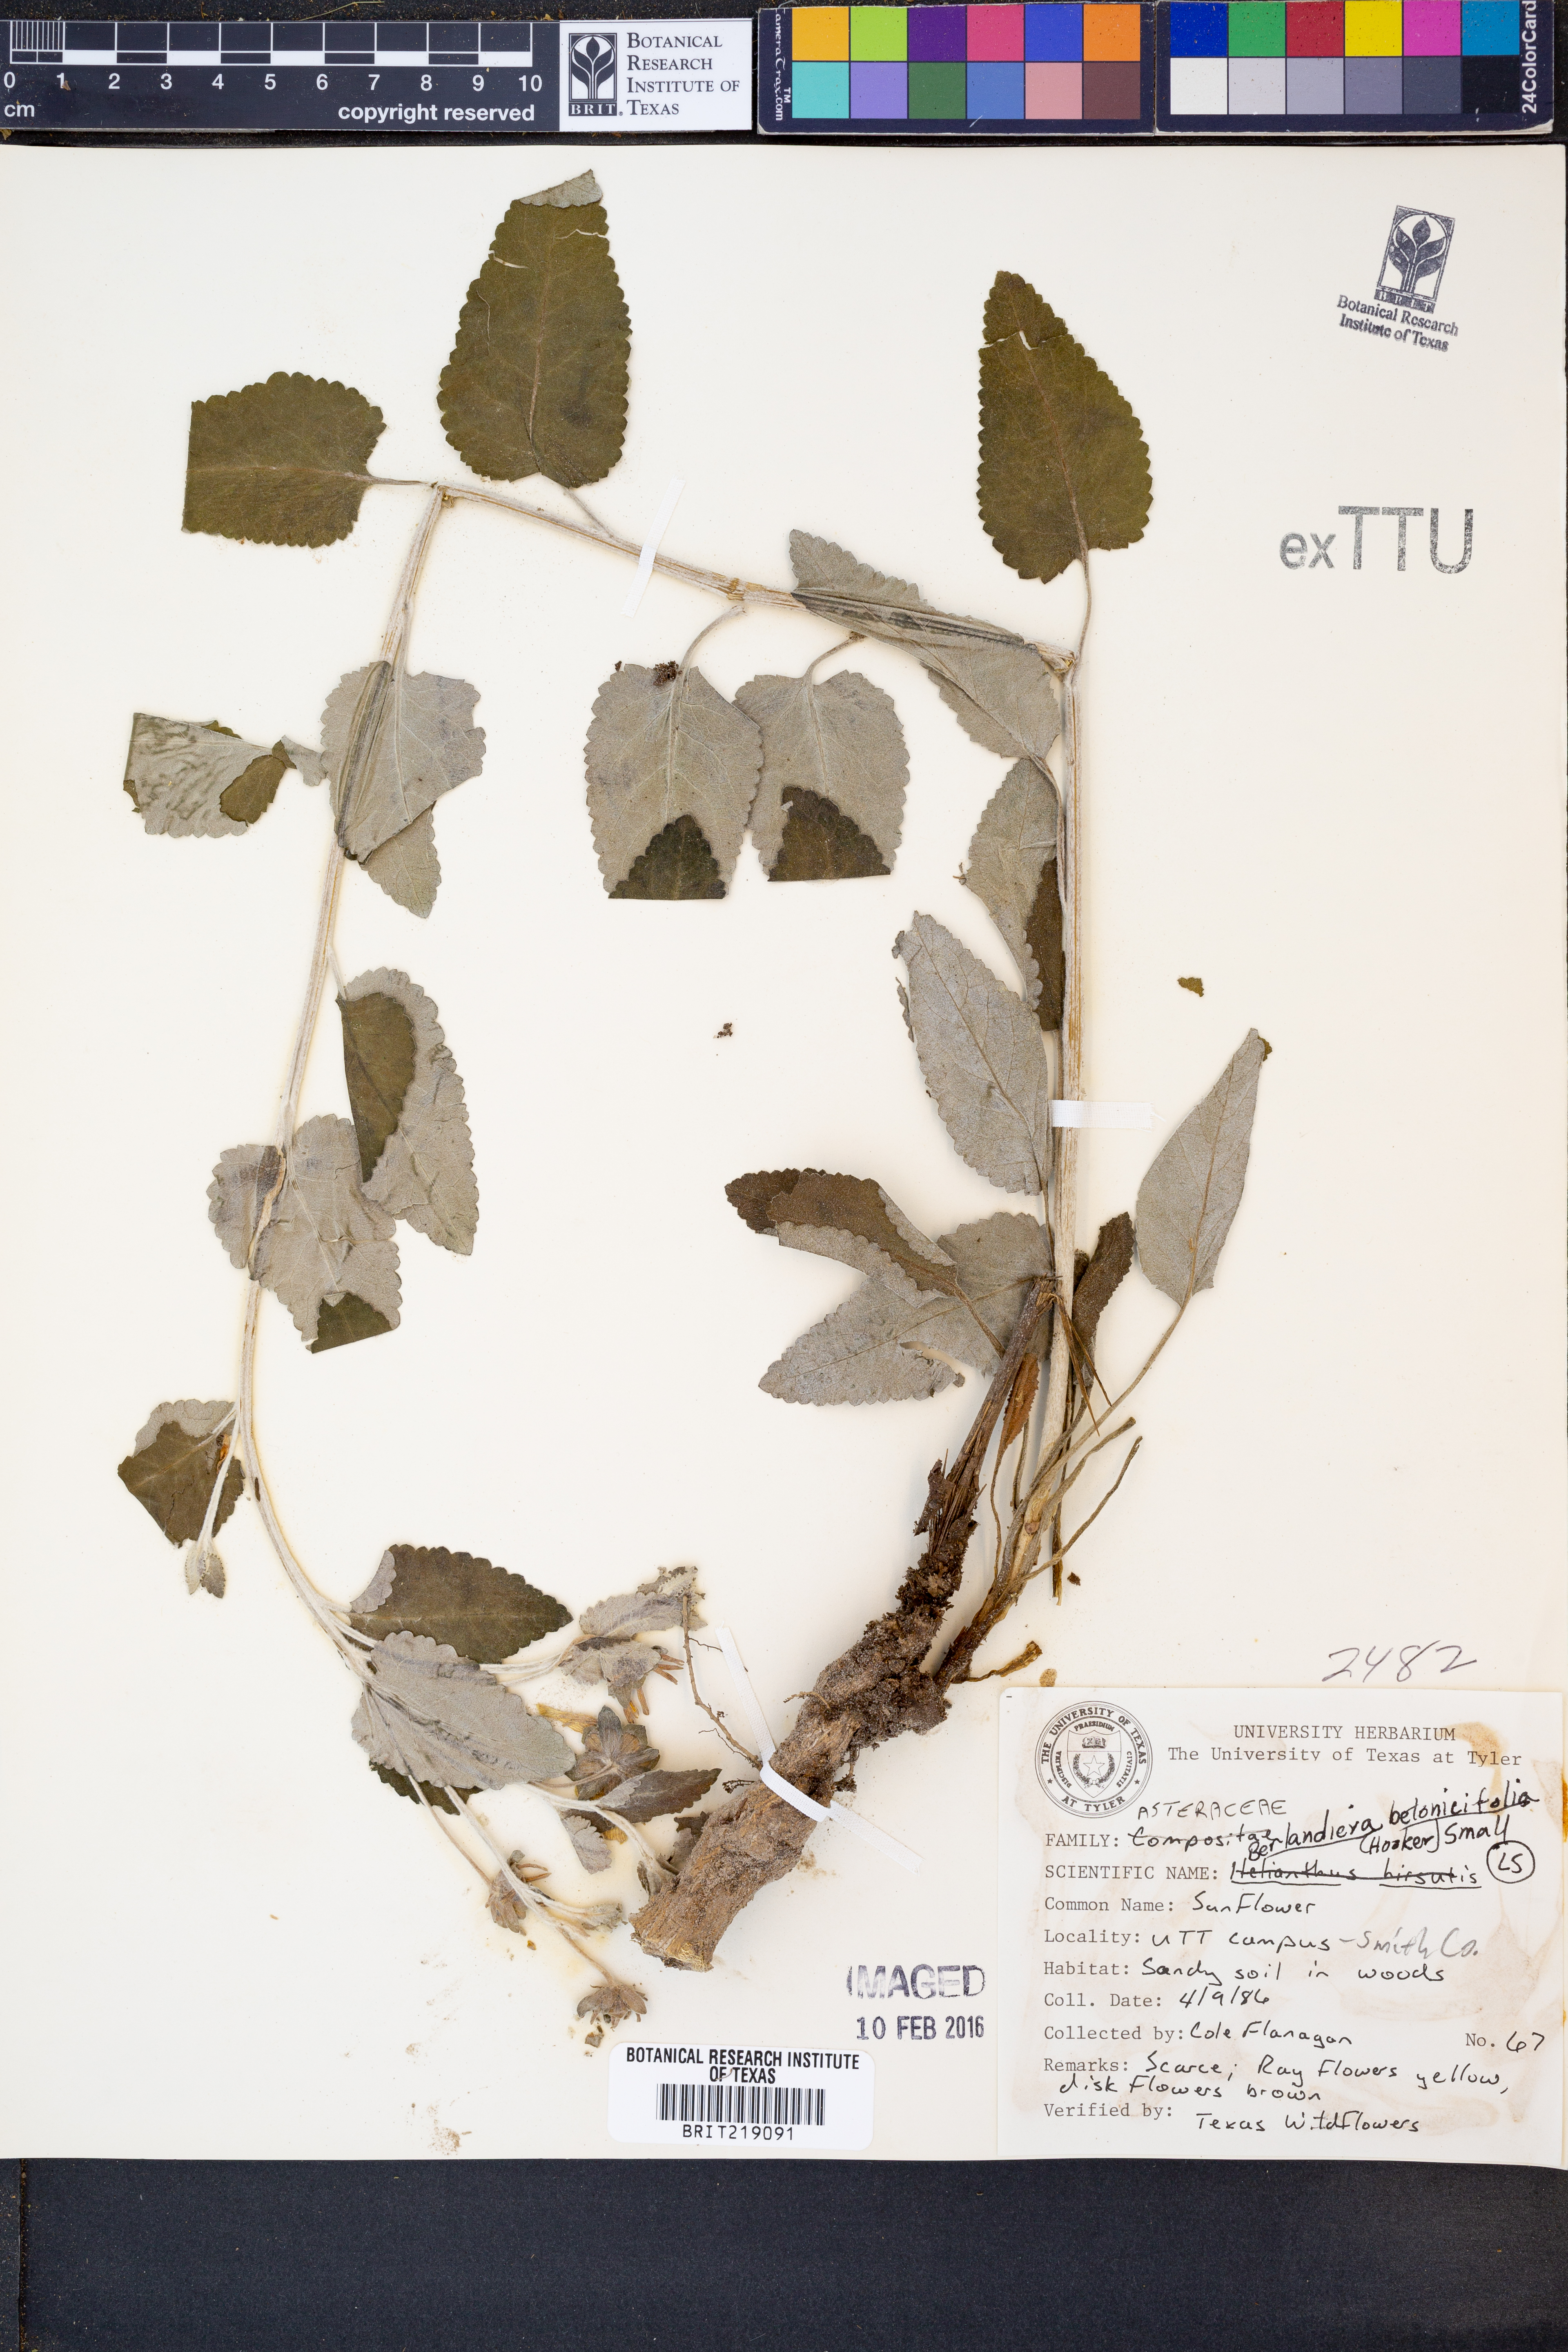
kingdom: Plantae
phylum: Tracheophyta
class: Magnoliopsida
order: Asterales
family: Asteraceae
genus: Berlandiera
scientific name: Berlandiera betonicifolia
